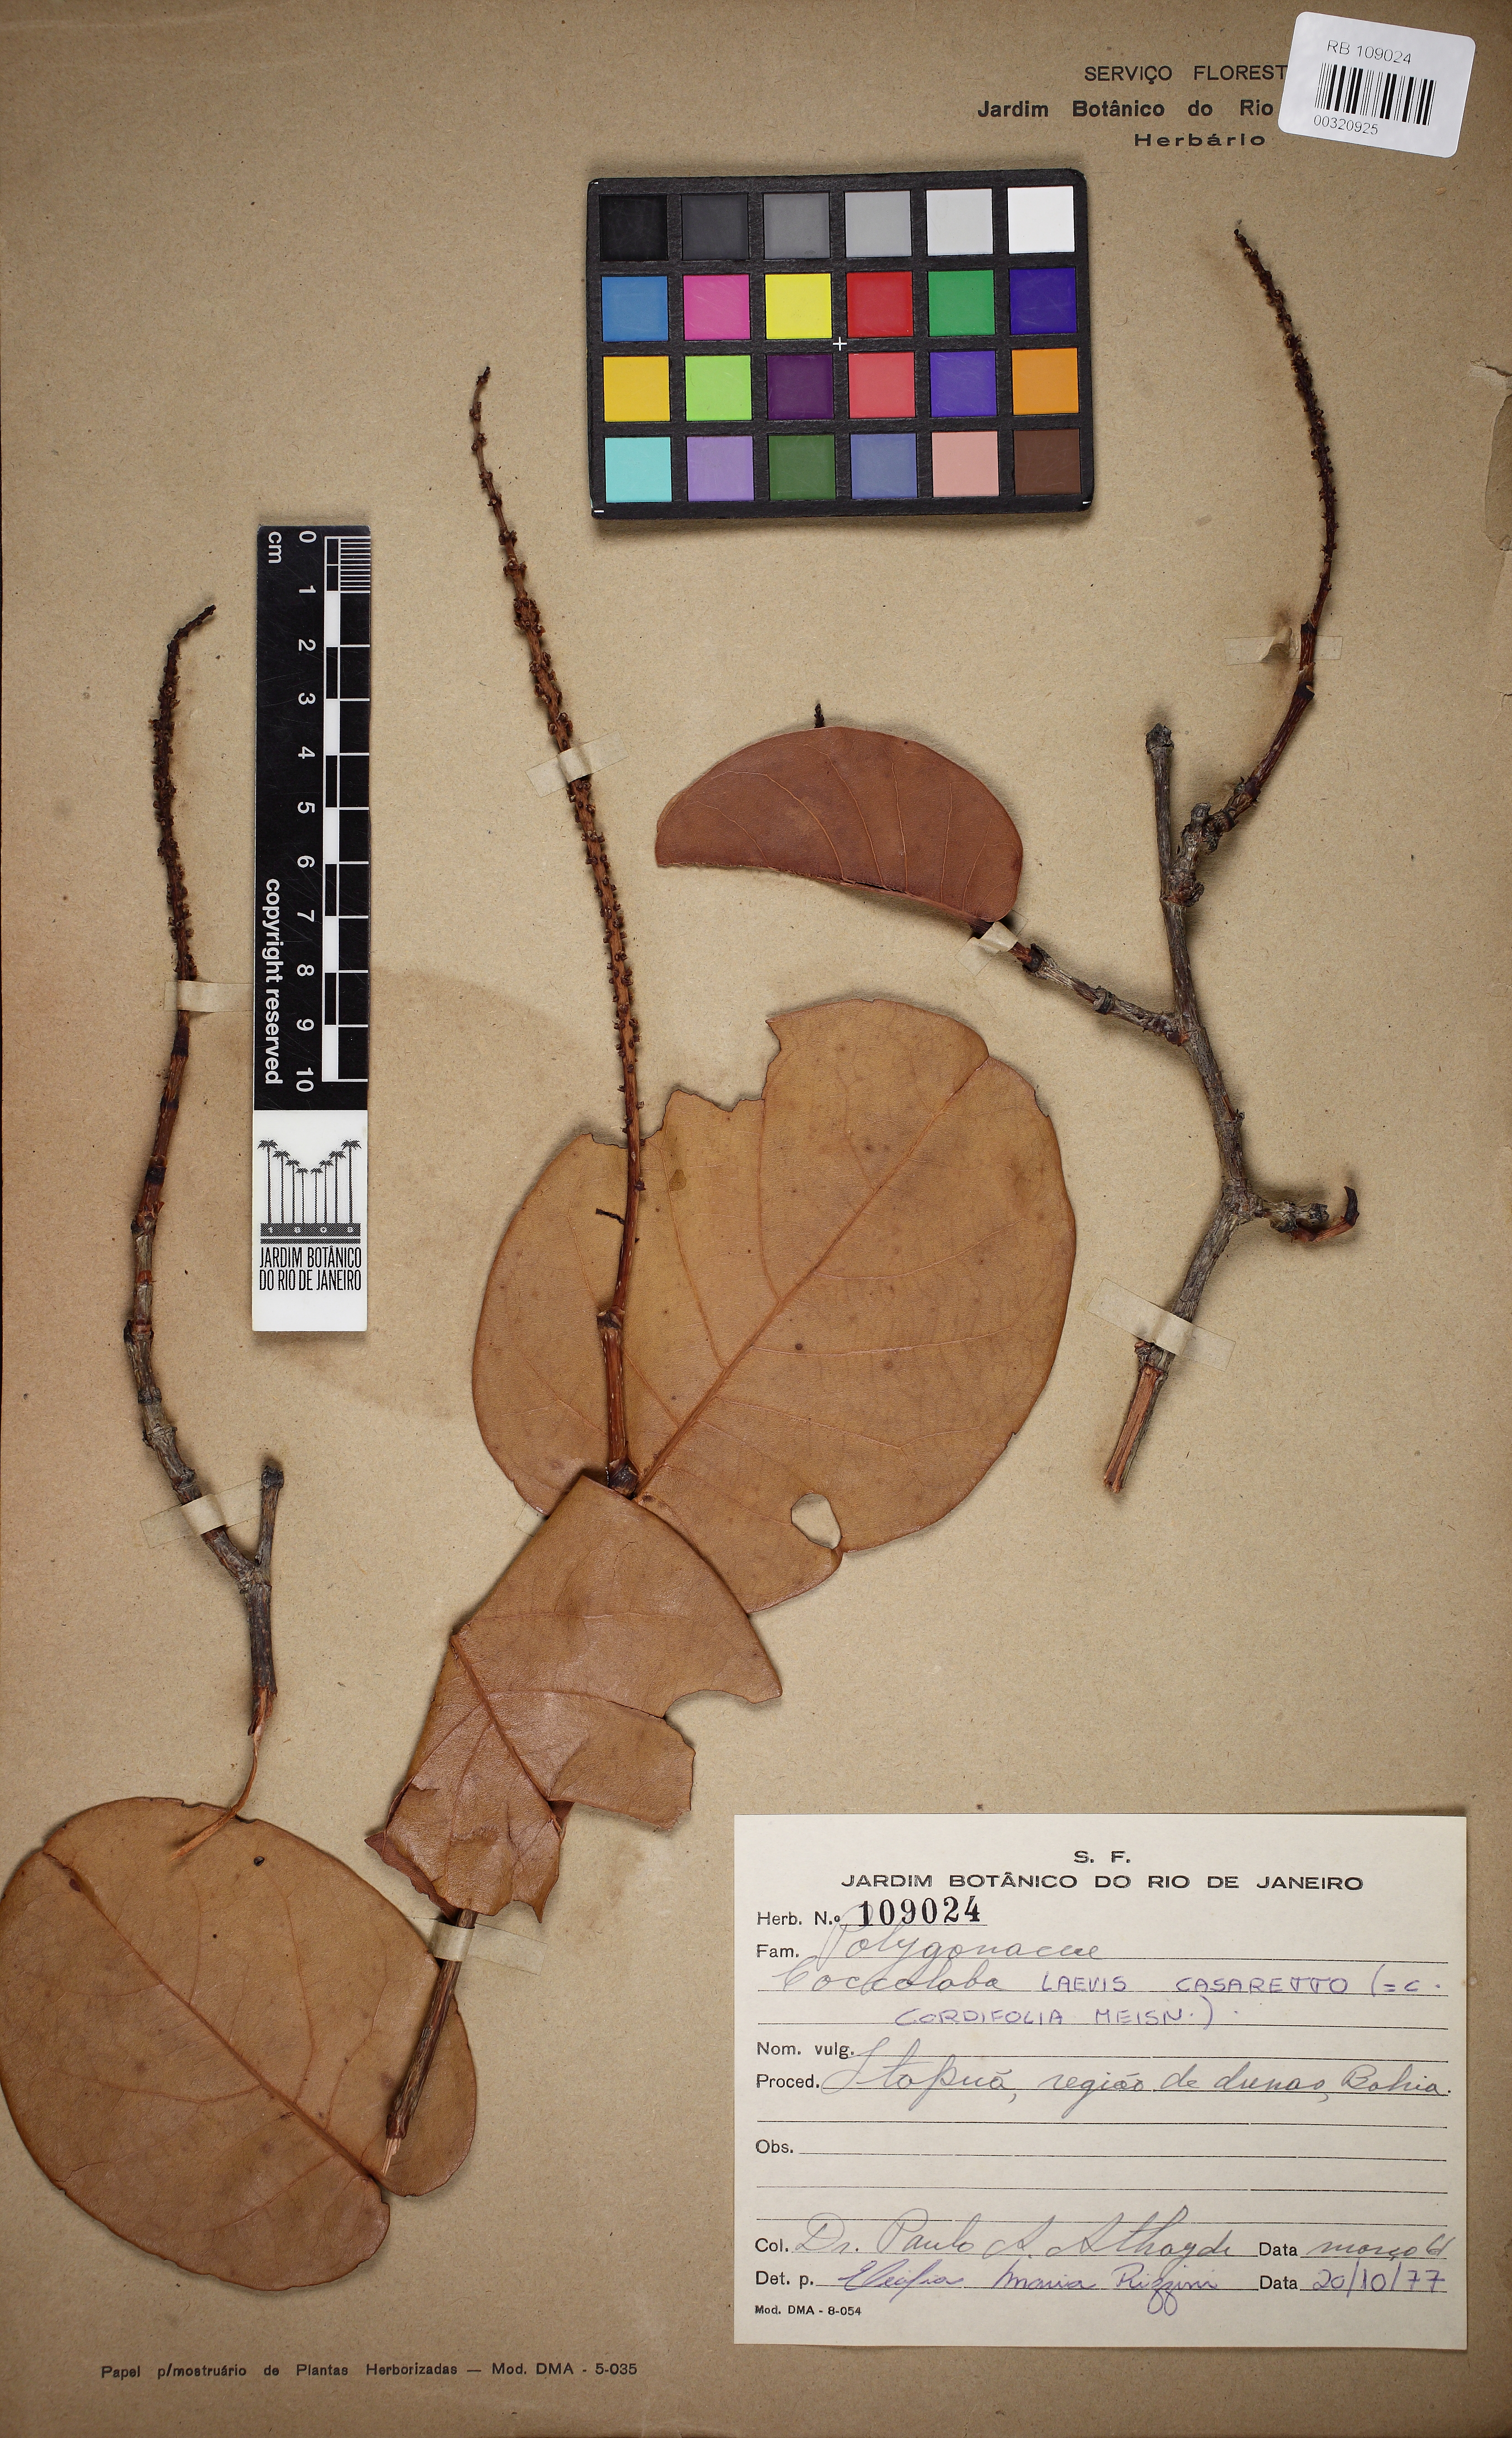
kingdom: Plantae
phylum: Tracheophyta
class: Magnoliopsida
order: Caryophyllales
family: Polygonaceae
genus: Coccoloba
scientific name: Coccoloba laevis
